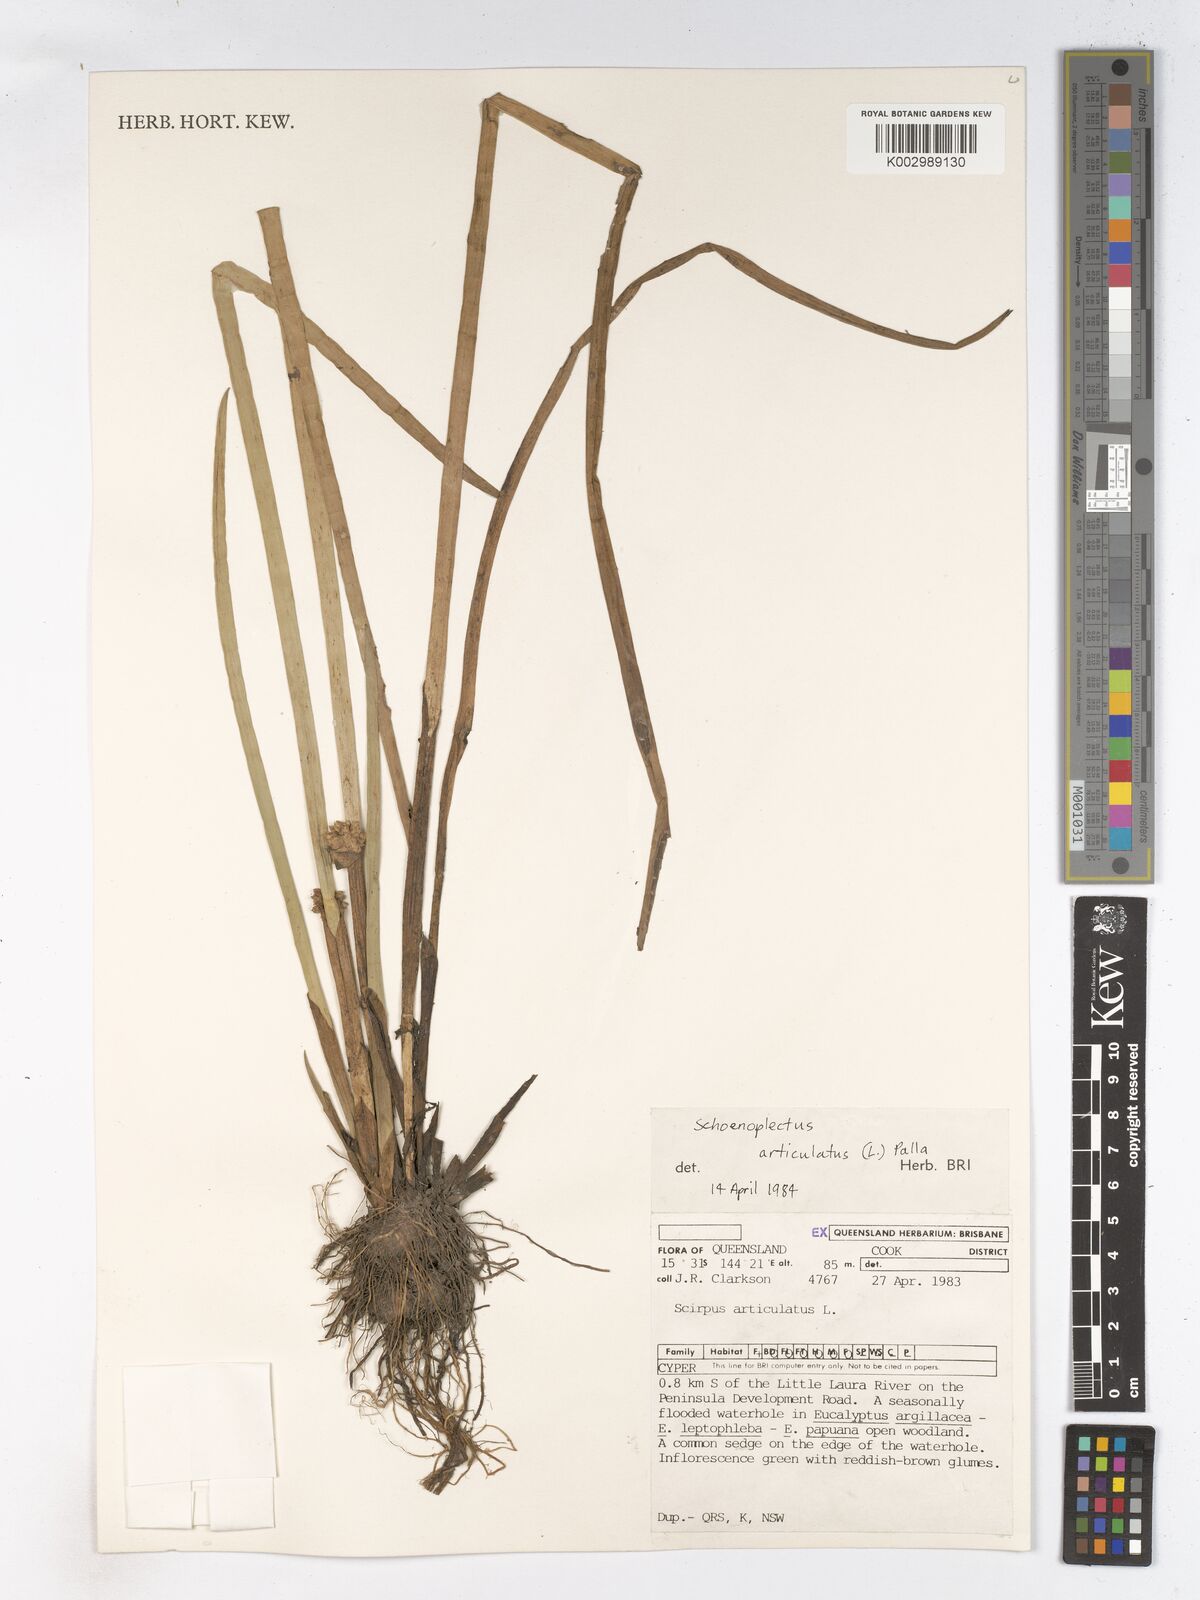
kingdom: Plantae
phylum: Tracheophyta
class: Liliopsida
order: Poales
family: Cyperaceae
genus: Schoenoplectiella
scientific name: Schoenoplectiella articulata
